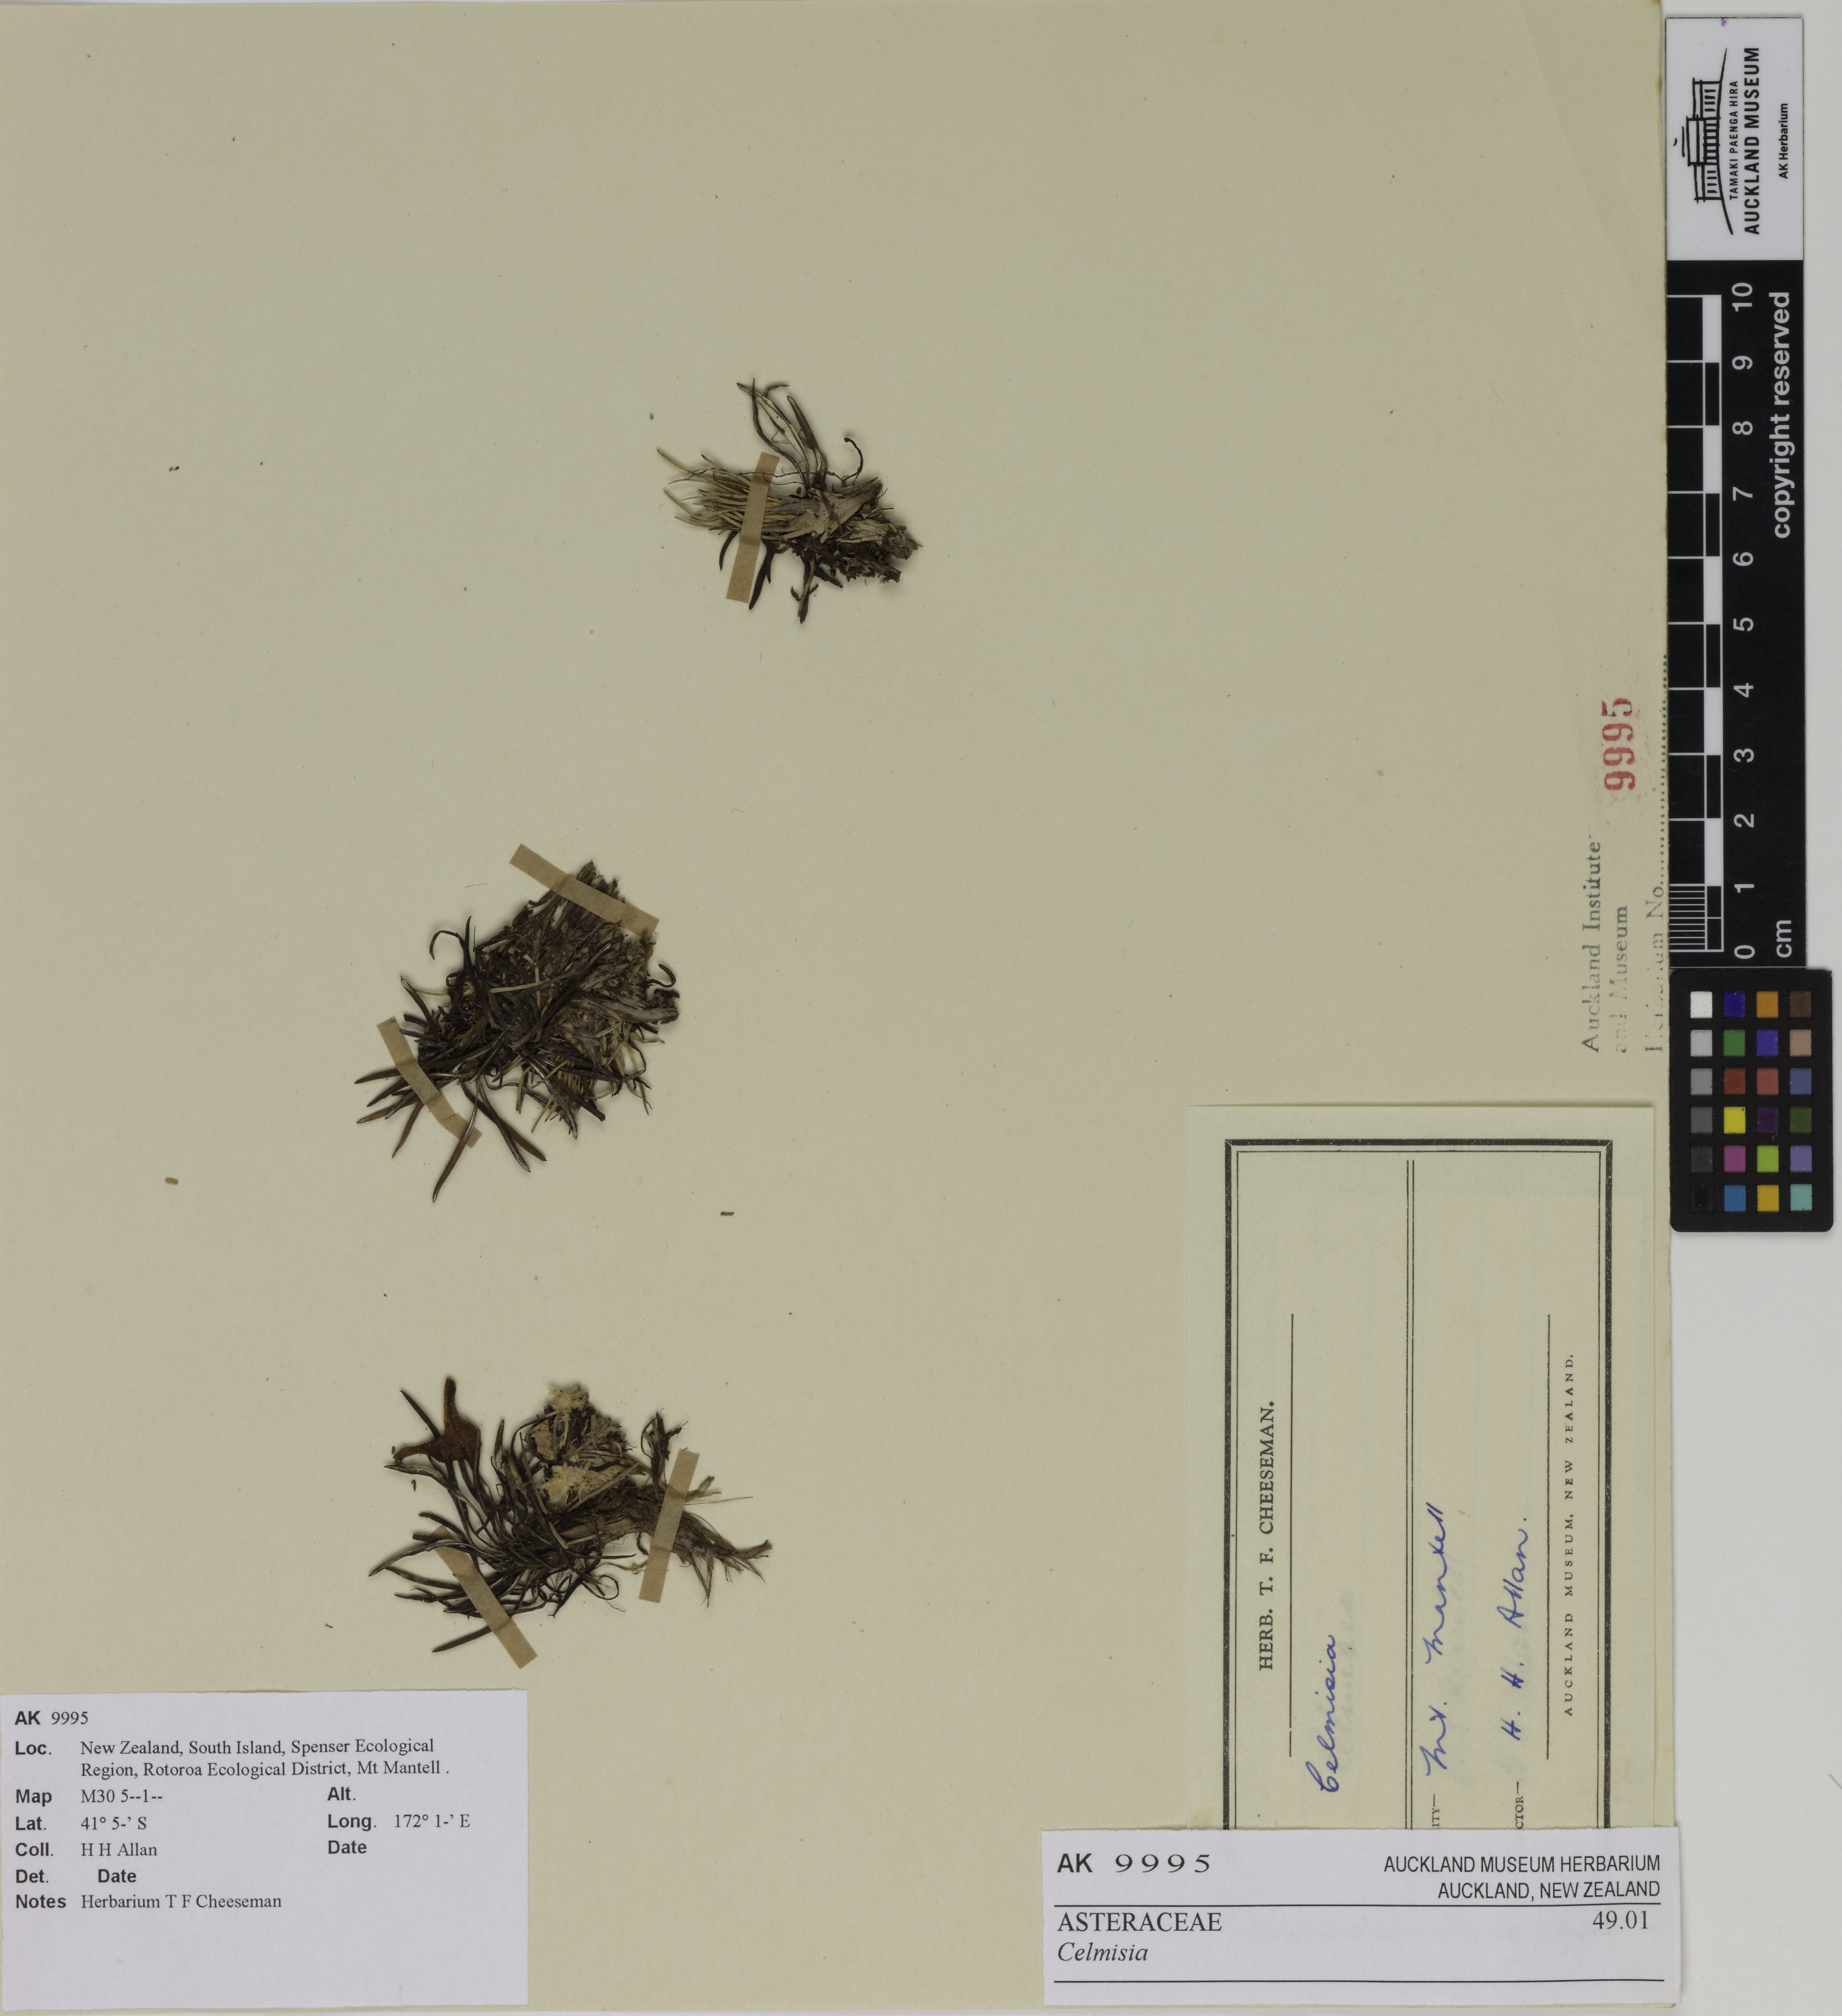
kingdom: Plantae
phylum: Tracheophyta
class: Magnoliopsida
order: Asterales
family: Asteraceae
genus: Celmisia
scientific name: Celmisia
